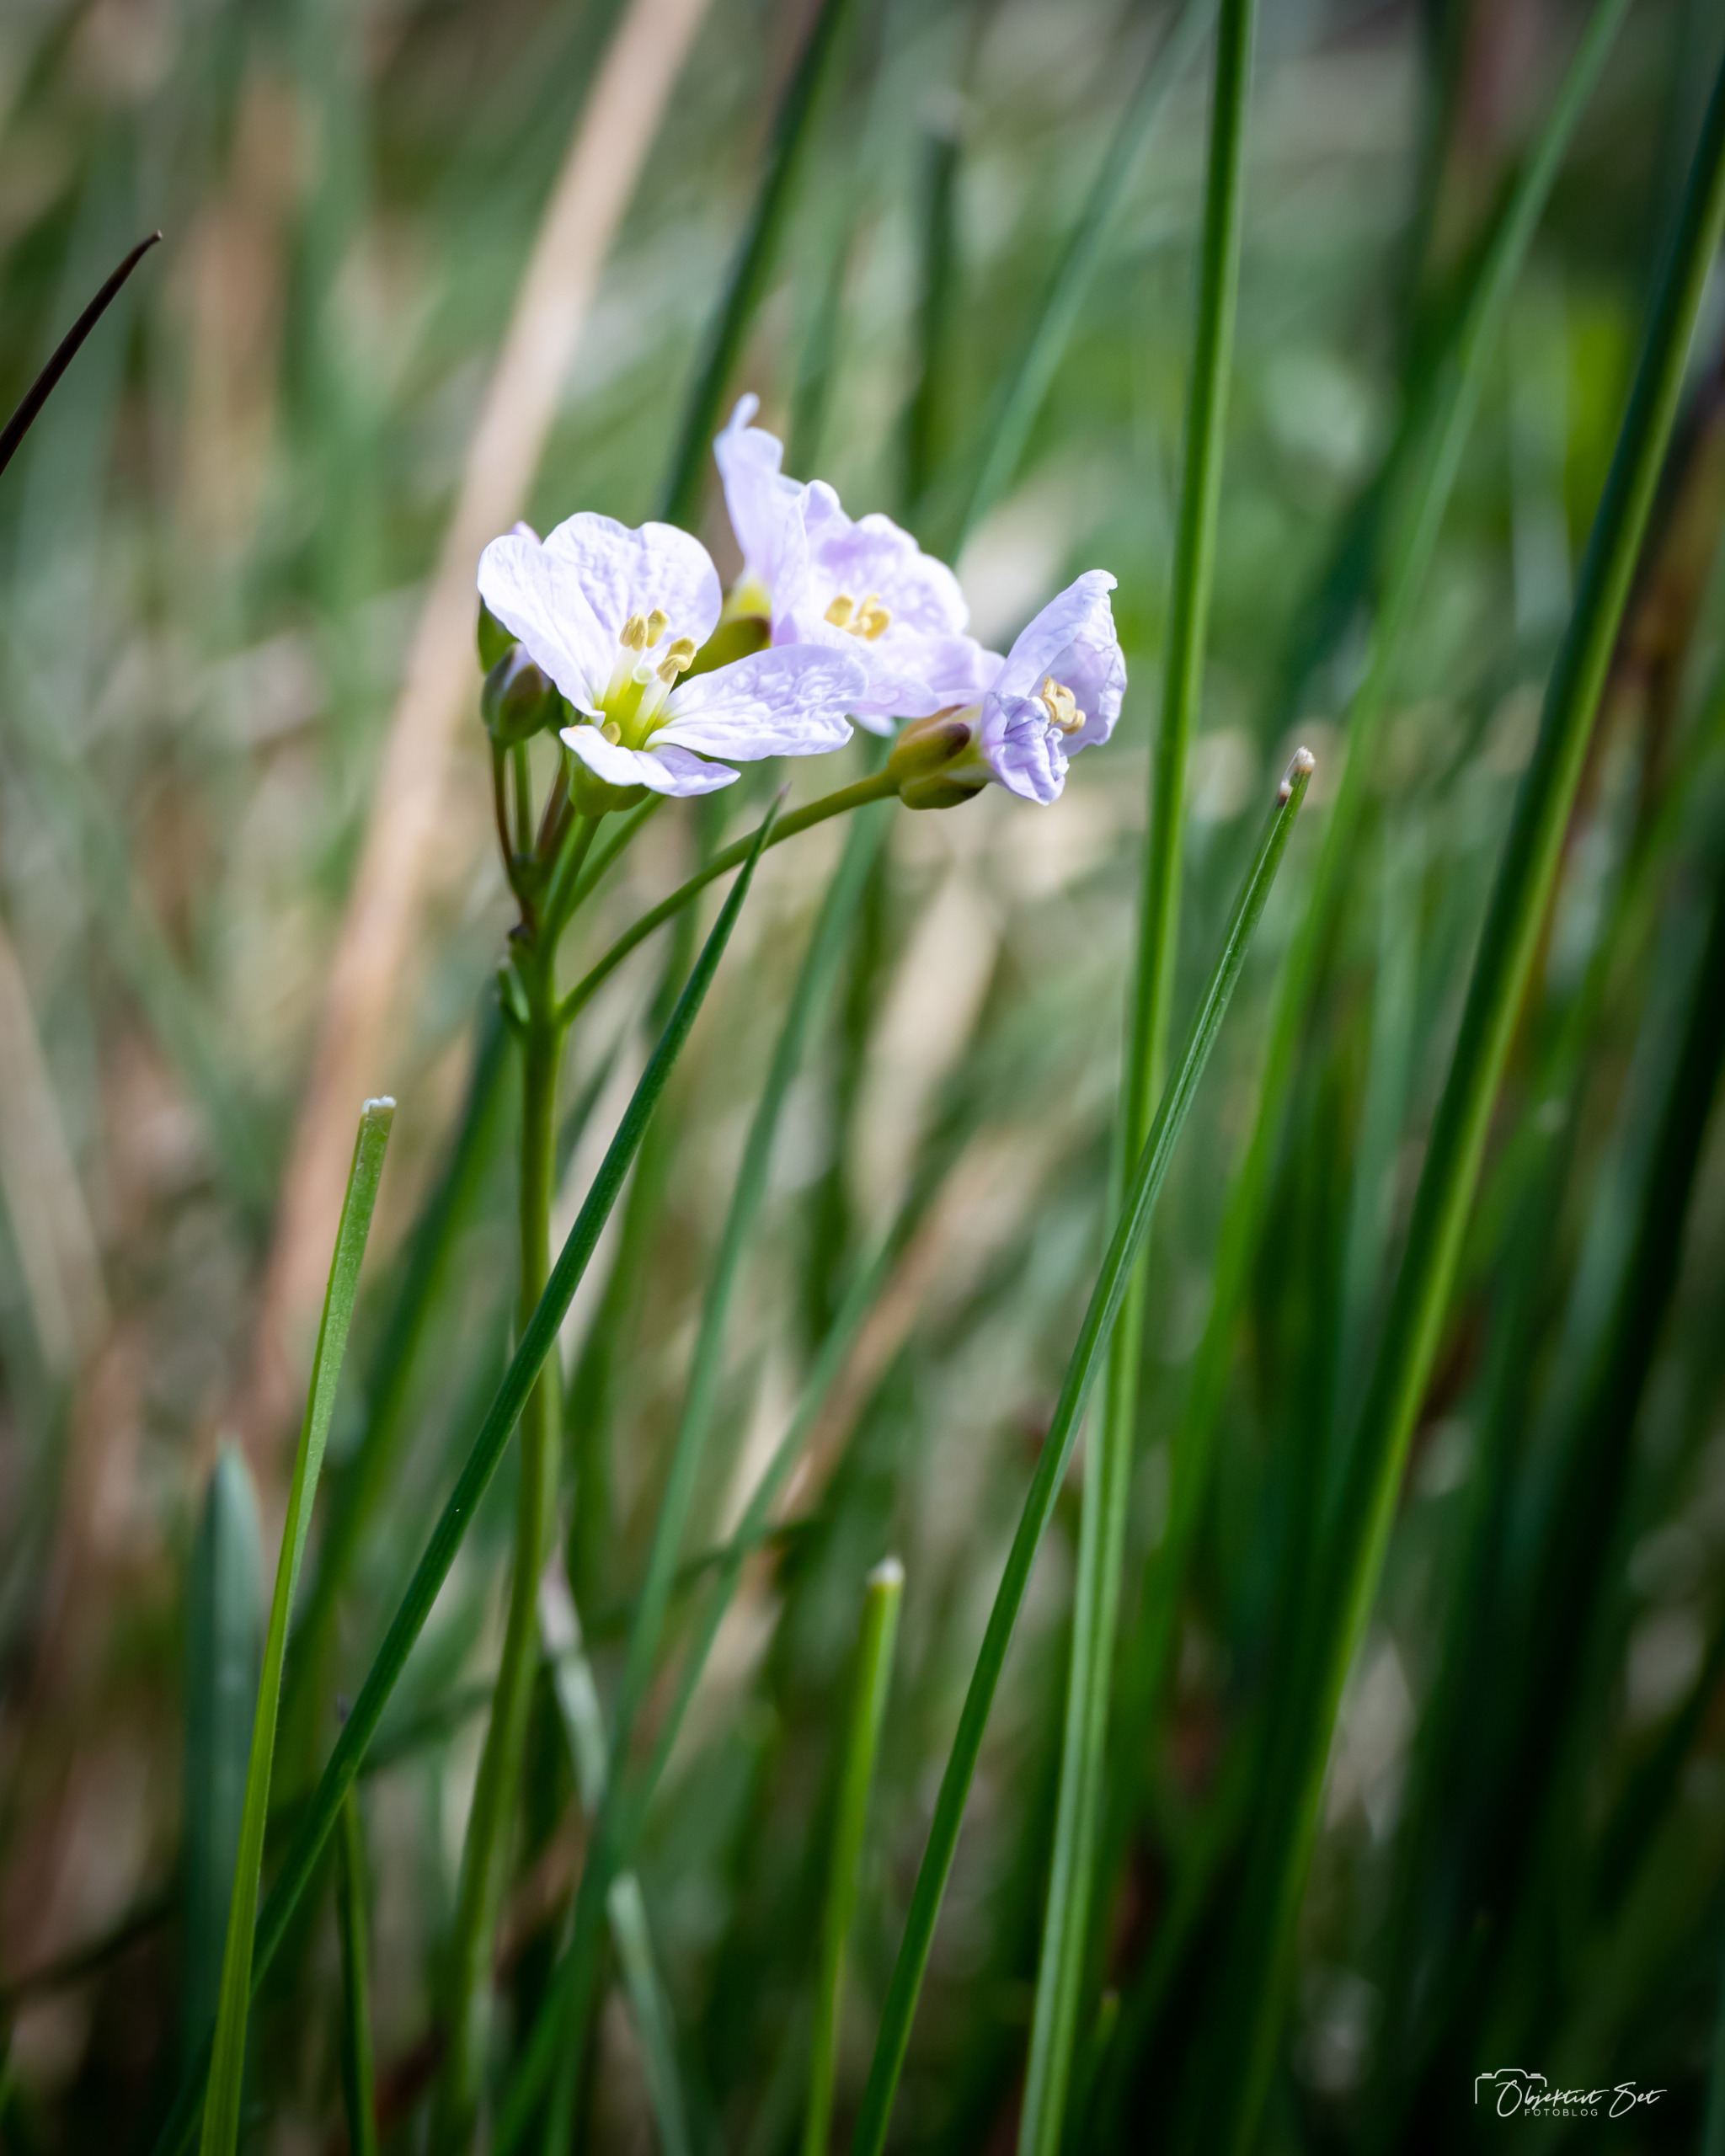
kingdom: Plantae
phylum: Tracheophyta
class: Magnoliopsida
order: Brassicales
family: Brassicaceae
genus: Cardamine
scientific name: Cardamine pratensis
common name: Engkarse
